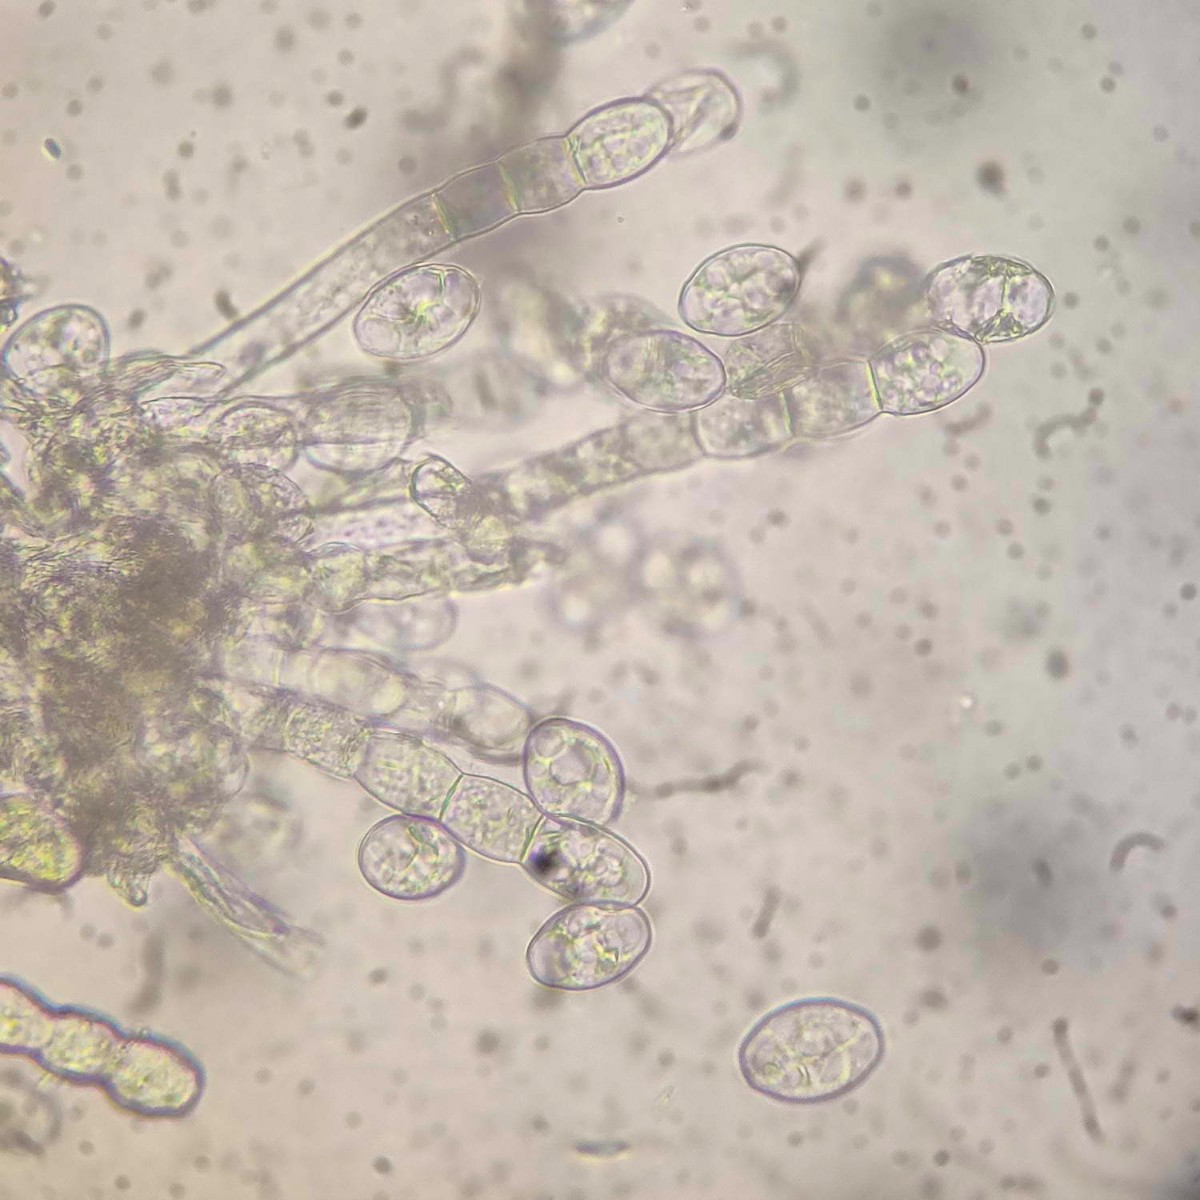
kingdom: Fungi
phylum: Ascomycota
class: Leotiomycetes
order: Helotiales
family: Erysiphaceae
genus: Podosphaera
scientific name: Podosphaera epilobii
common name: dueurt-meldug
